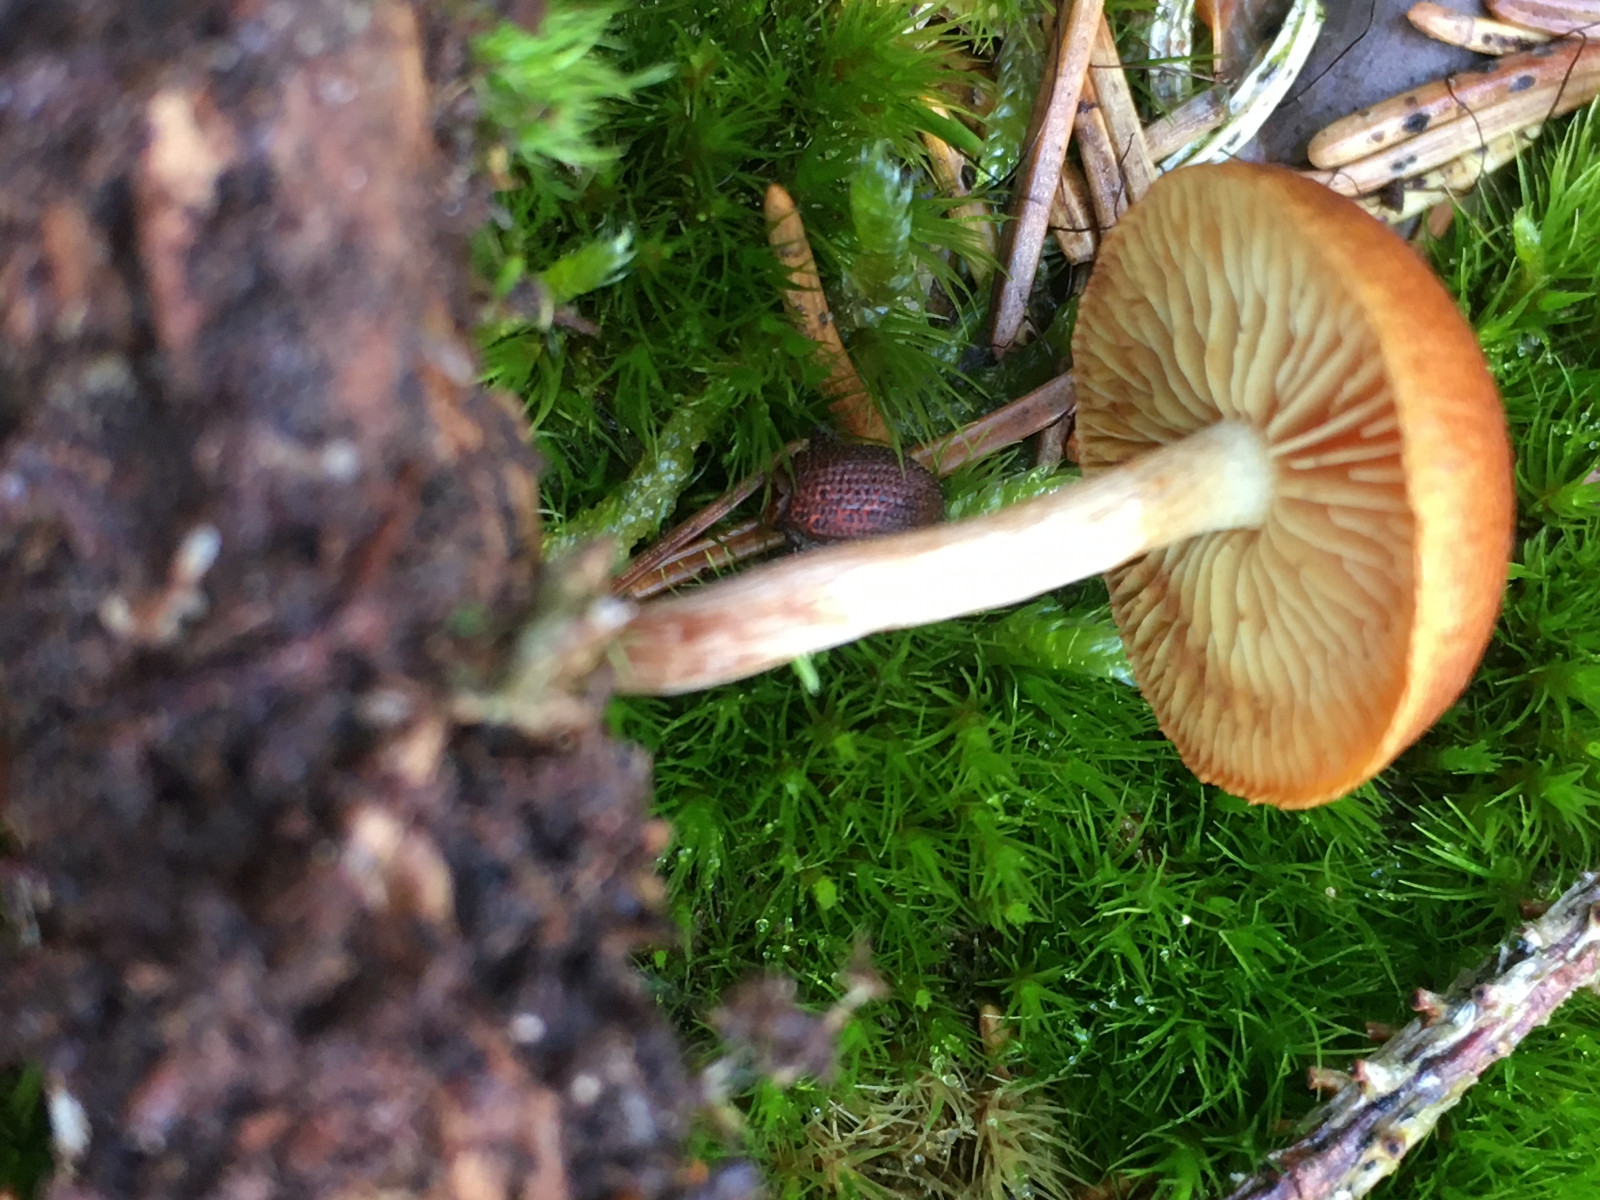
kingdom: Fungi
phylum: Basidiomycota
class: Agaricomycetes
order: Agaricales
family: Hymenogastraceae
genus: Gymnopilus
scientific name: Gymnopilus penetrans
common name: plettet flammehat
